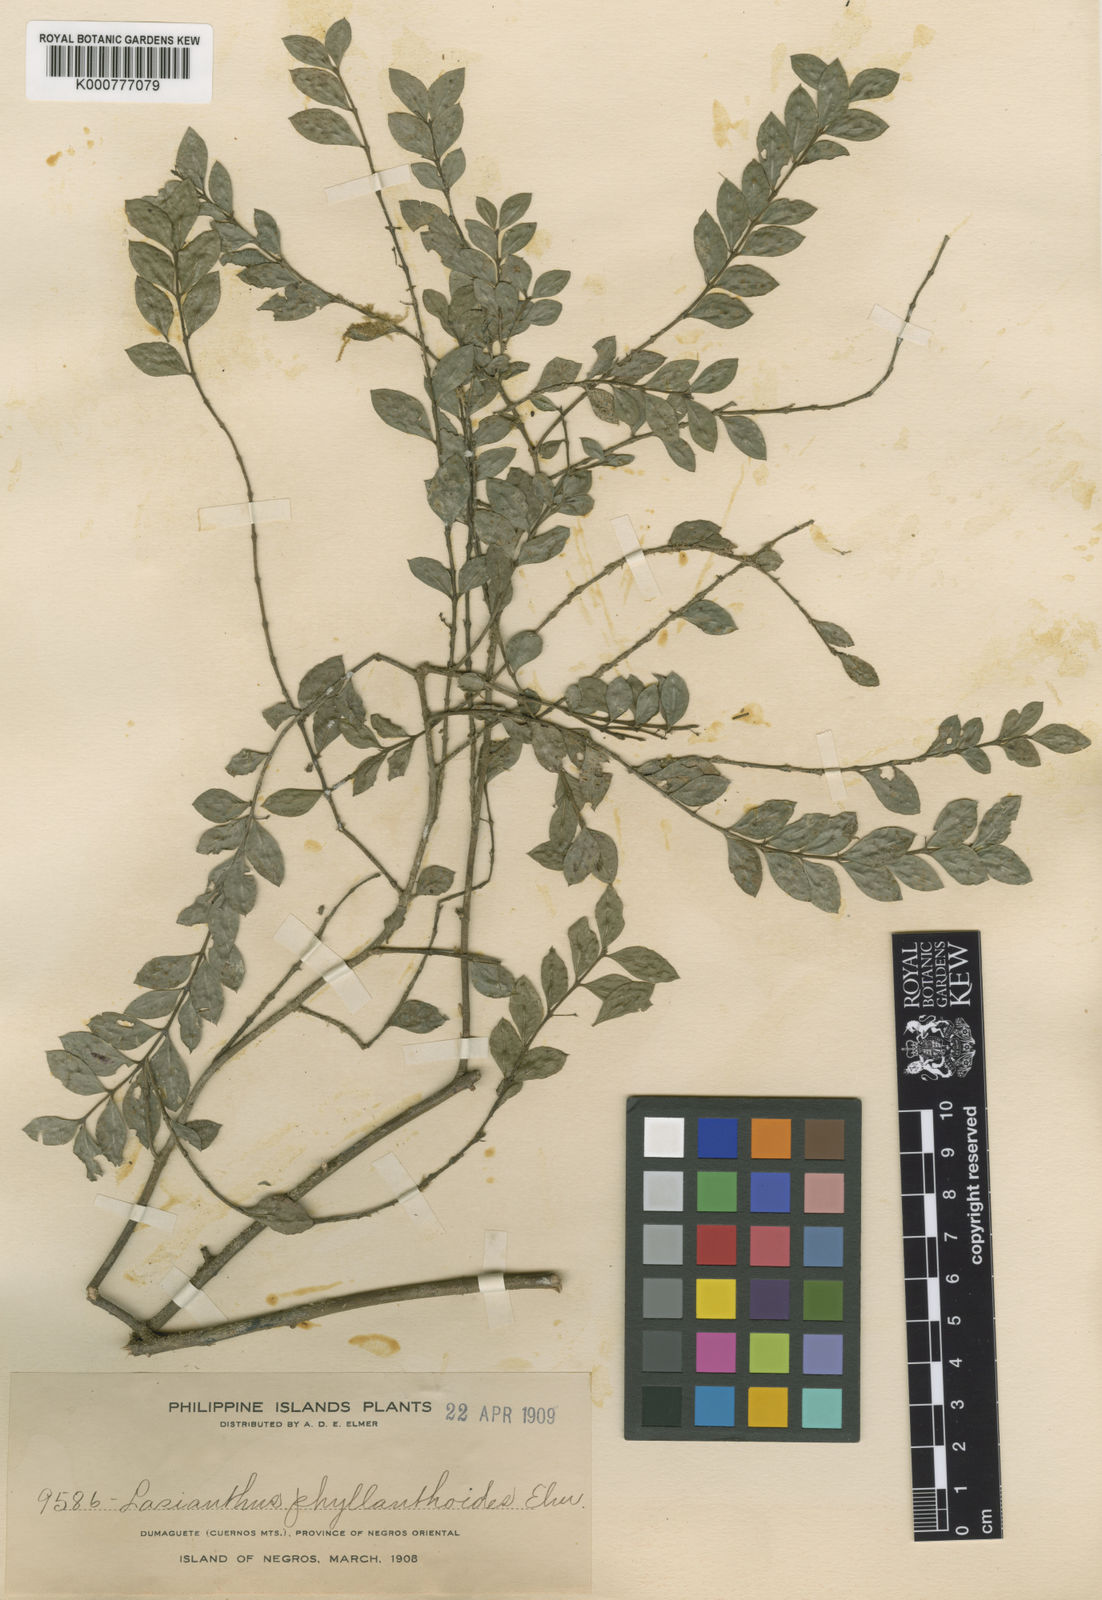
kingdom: Plantae
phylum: Tracheophyta
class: Magnoliopsida
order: Gentianales
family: Rubiaceae
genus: Lasianthus
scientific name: Lasianthus biflorus
